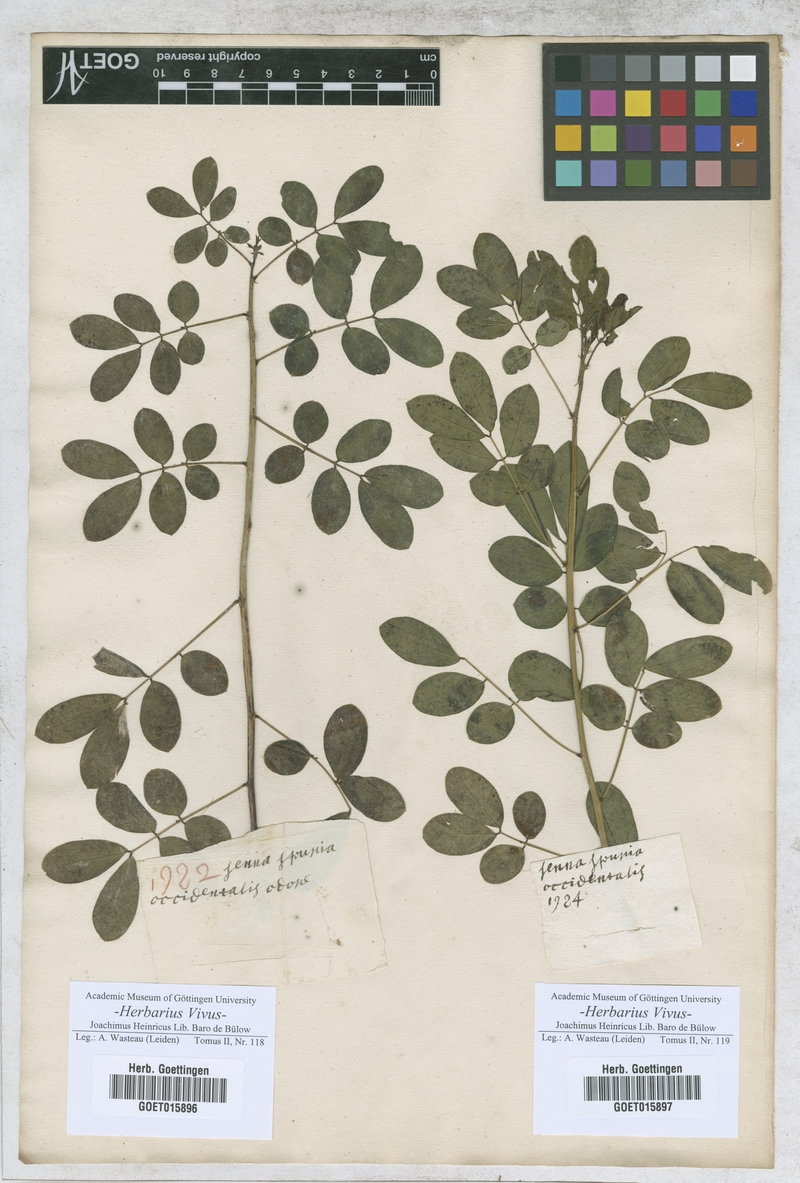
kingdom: Plantae
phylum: Tracheophyta
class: Magnoliopsida
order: Fabales
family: Fabaceae
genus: Senna
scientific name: Senna occidentalis
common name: Septicweed
